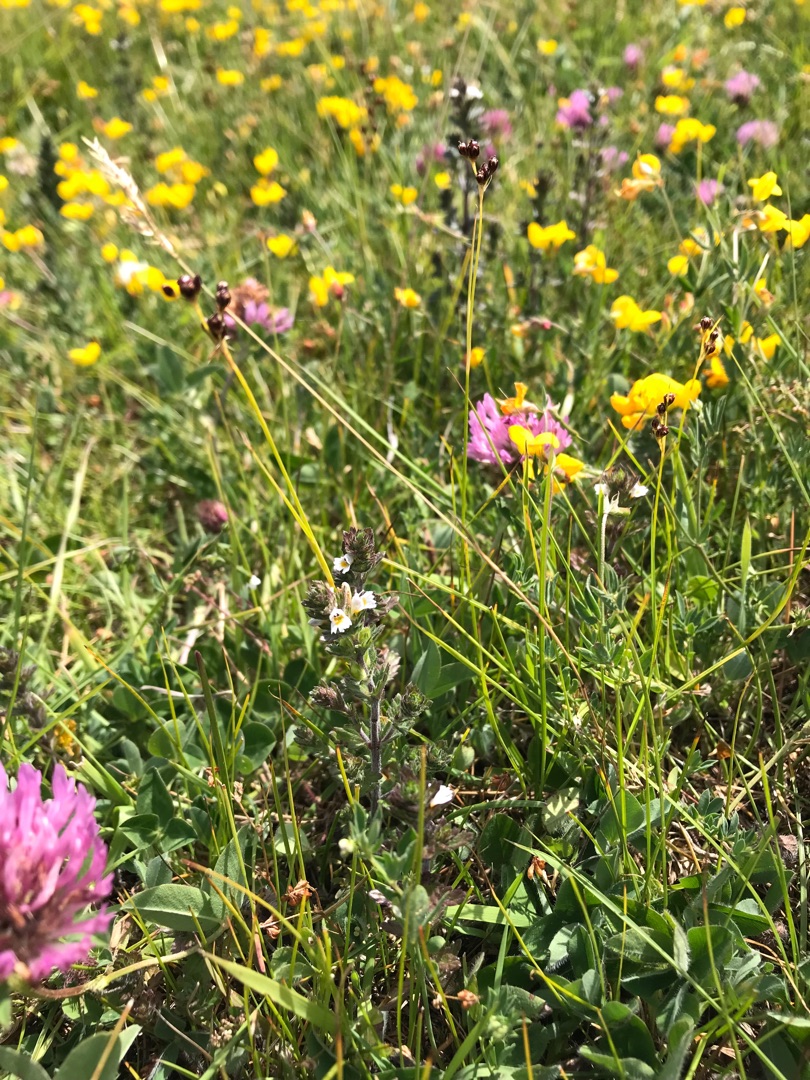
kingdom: Plantae
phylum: Tracheophyta
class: Magnoliopsida
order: Fabales
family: Fabaceae
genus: Trifolium
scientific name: Trifolium pratense
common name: Rød-kløver
